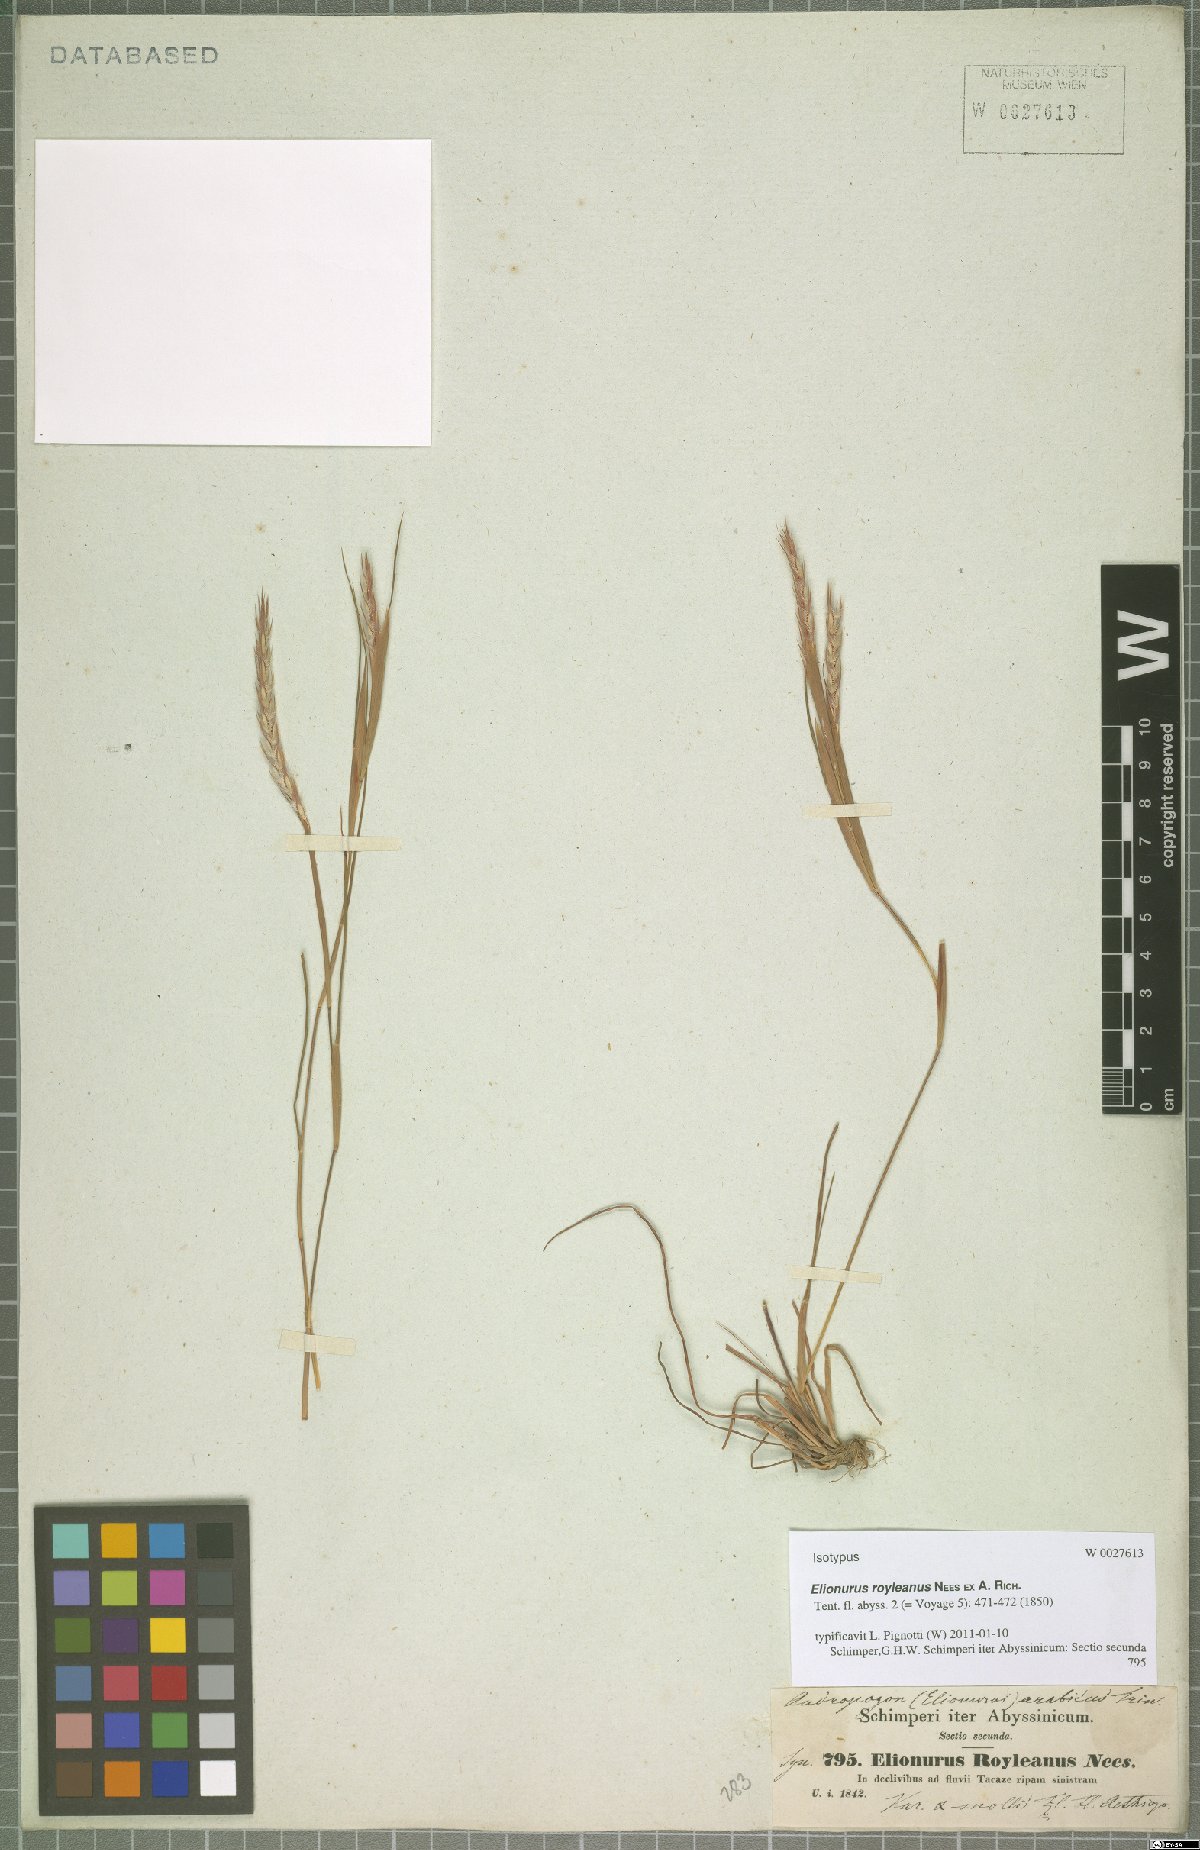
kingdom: Plantae
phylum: Tracheophyta
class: Liliopsida
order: Poales
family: Poaceae
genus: Elionurus
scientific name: Elionurus royleanus
